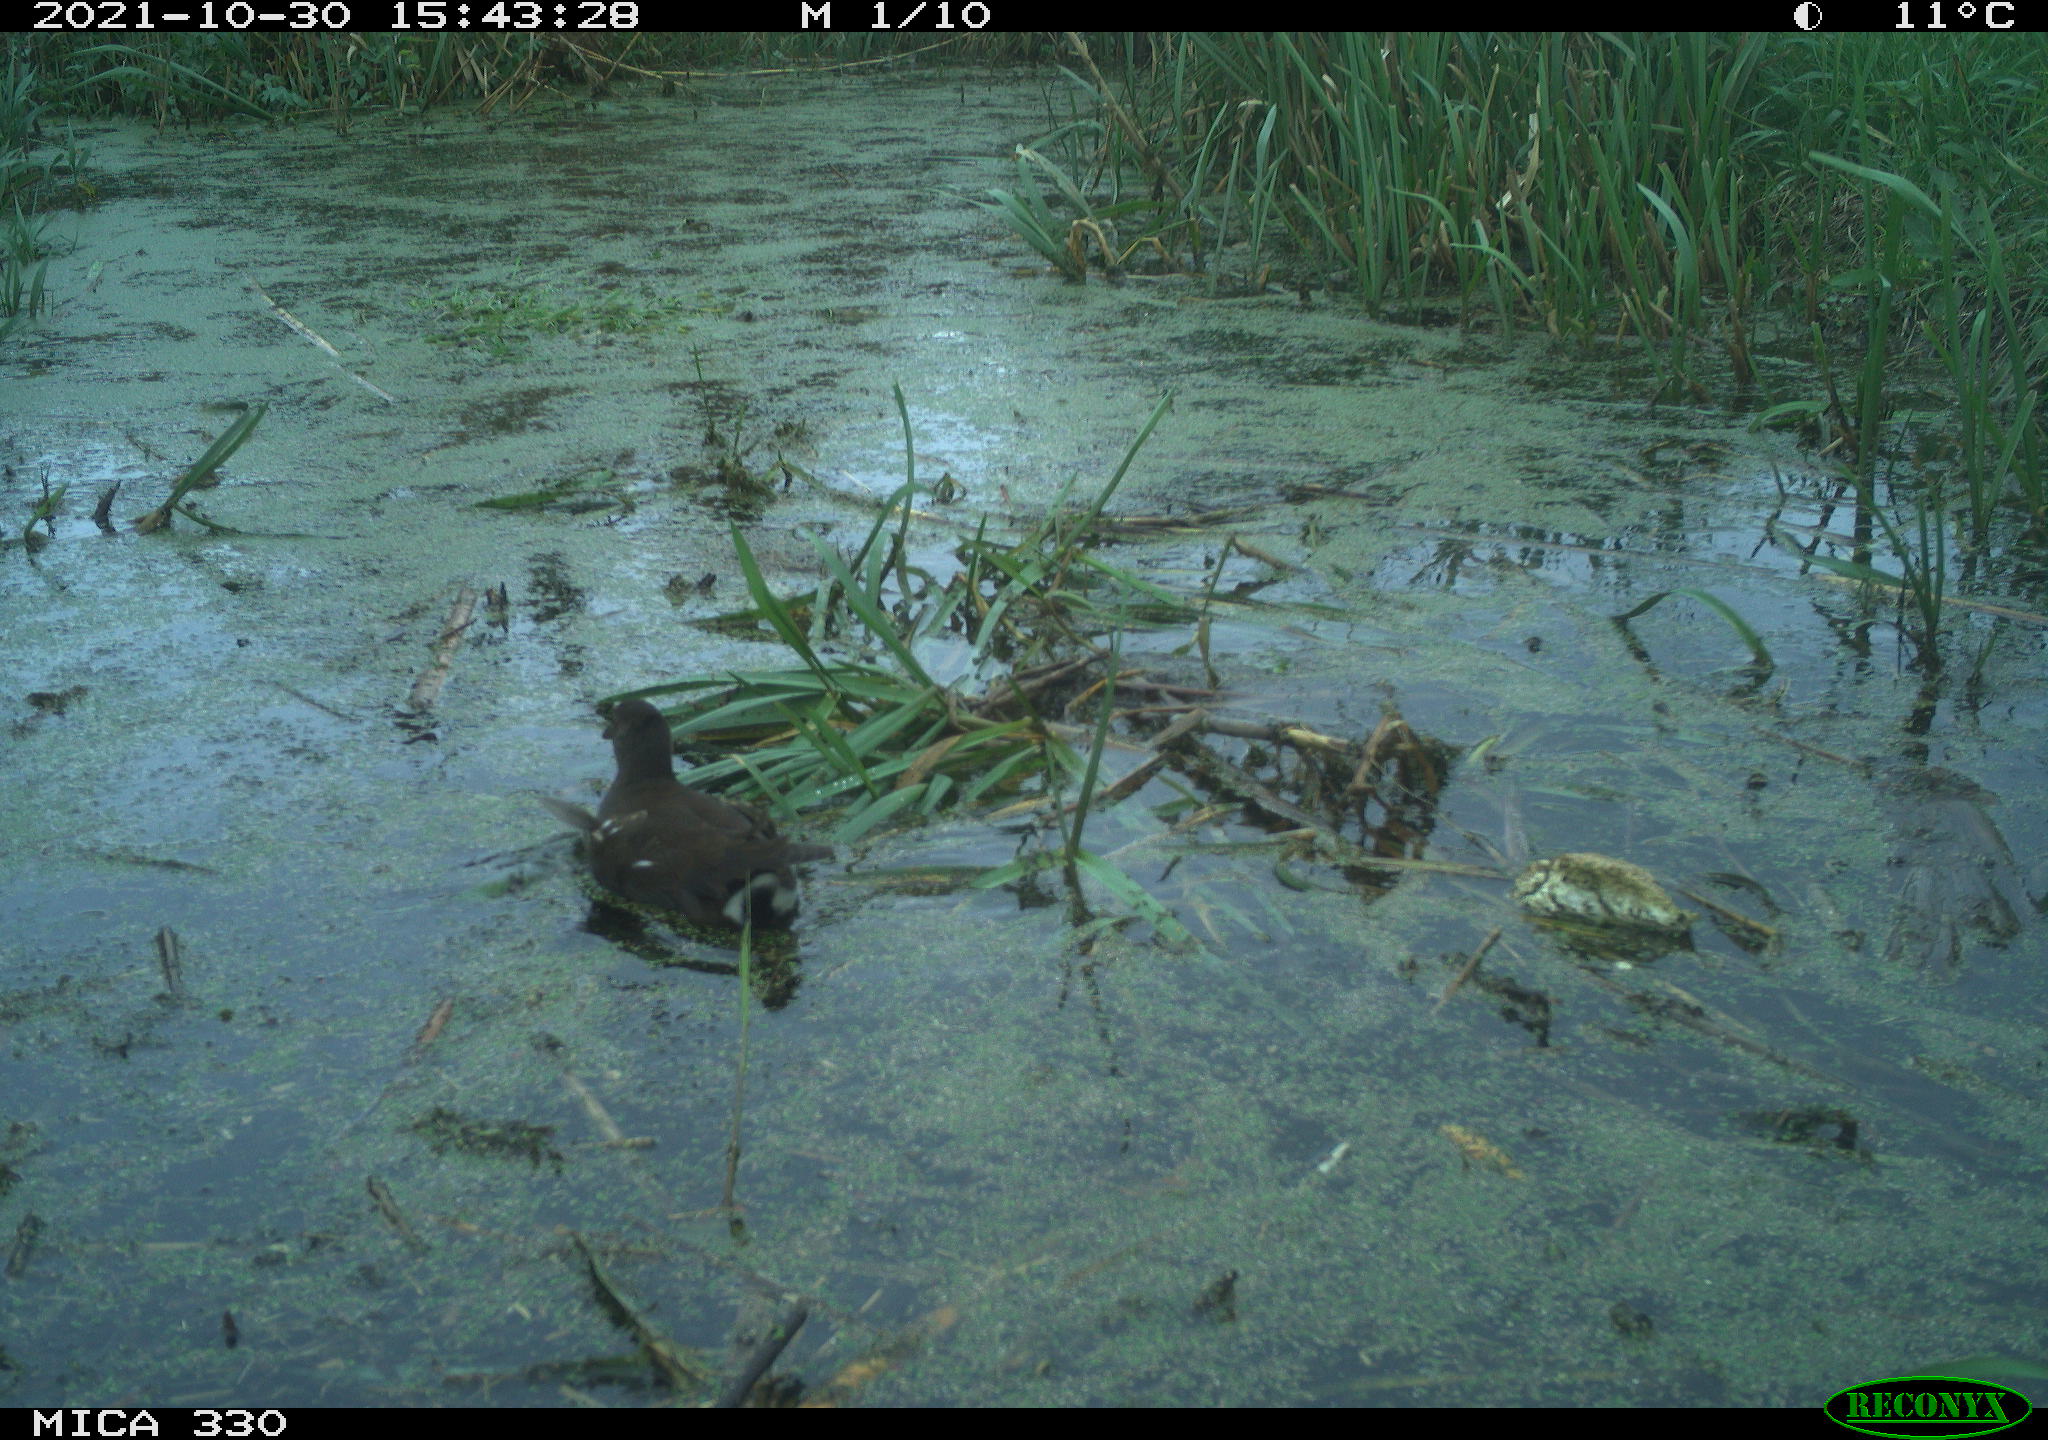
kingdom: Animalia
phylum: Chordata
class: Aves
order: Gruiformes
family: Rallidae
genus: Gallinula
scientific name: Gallinula chloropus
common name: Common moorhen
